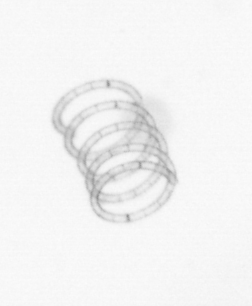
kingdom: Chromista
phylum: Ochrophyta
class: Bacillariophyceae
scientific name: Bacillariophyceae
